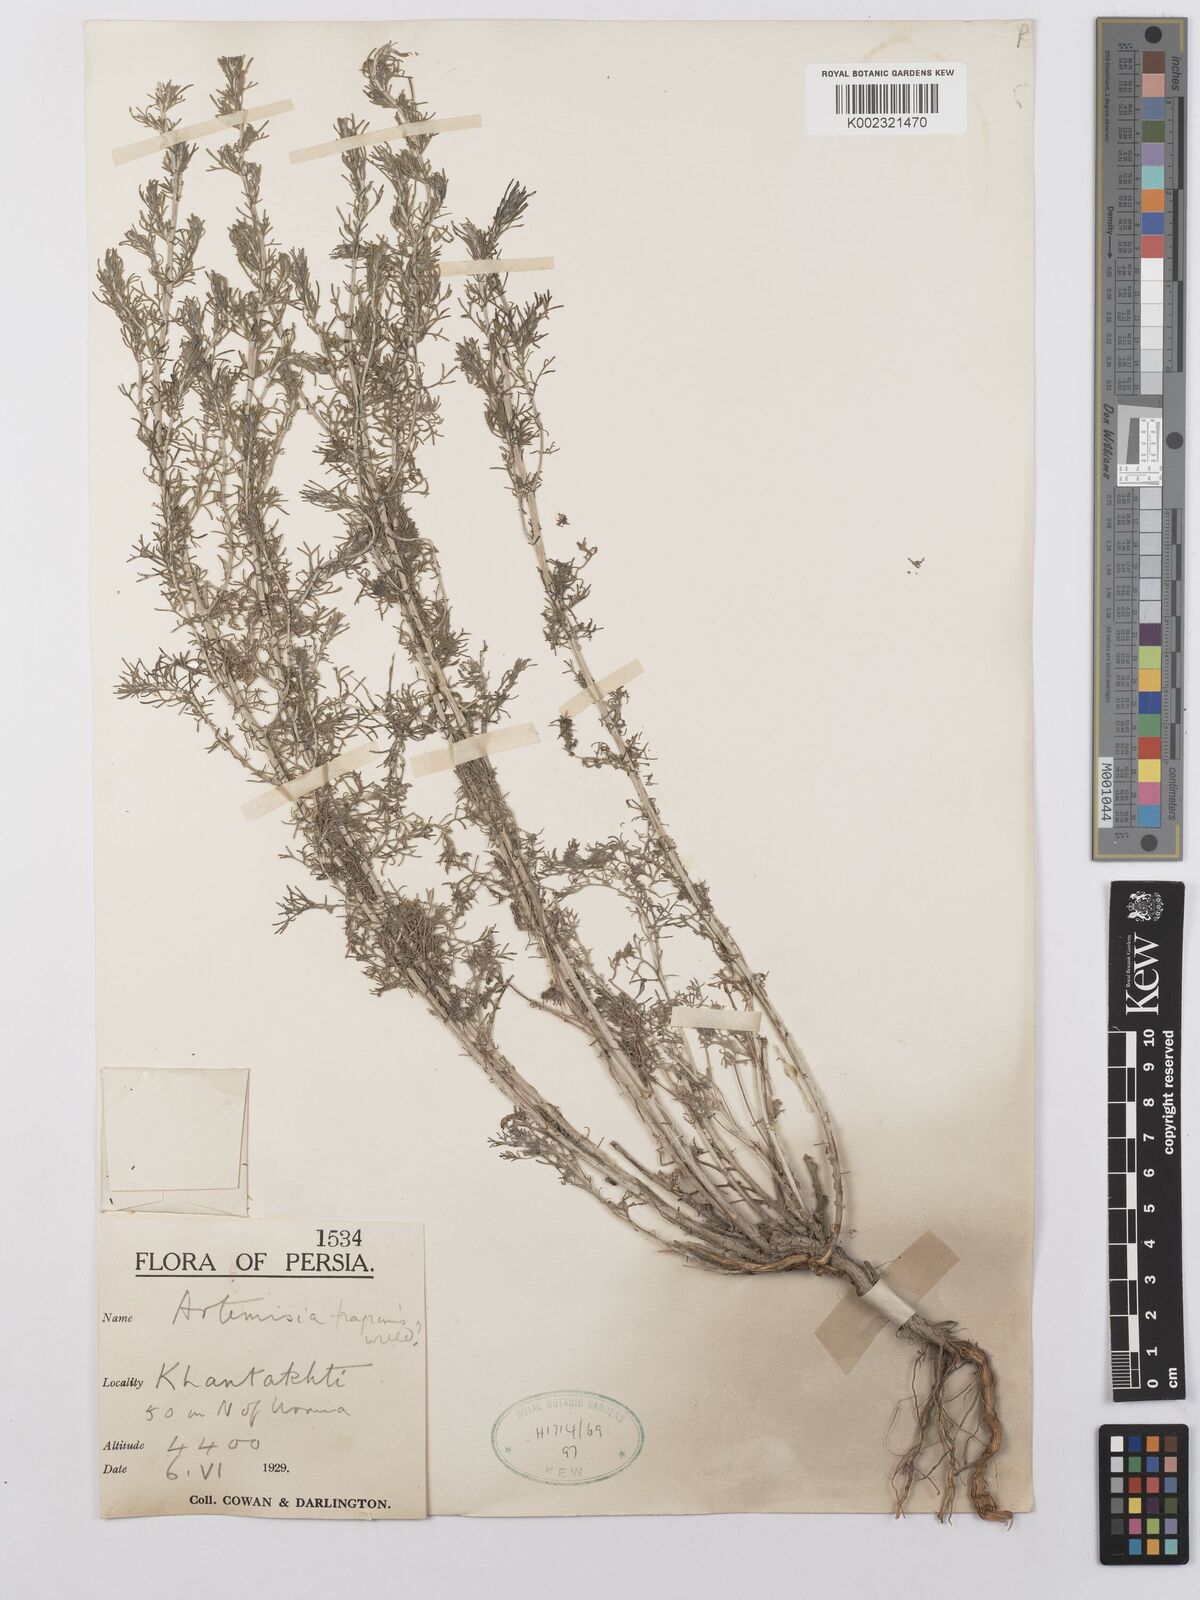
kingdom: Plantae
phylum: Tracheophyta
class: Magnoliopsida
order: Asterales
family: Asteraceae
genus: Artemisia
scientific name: Artemisia fragrans
